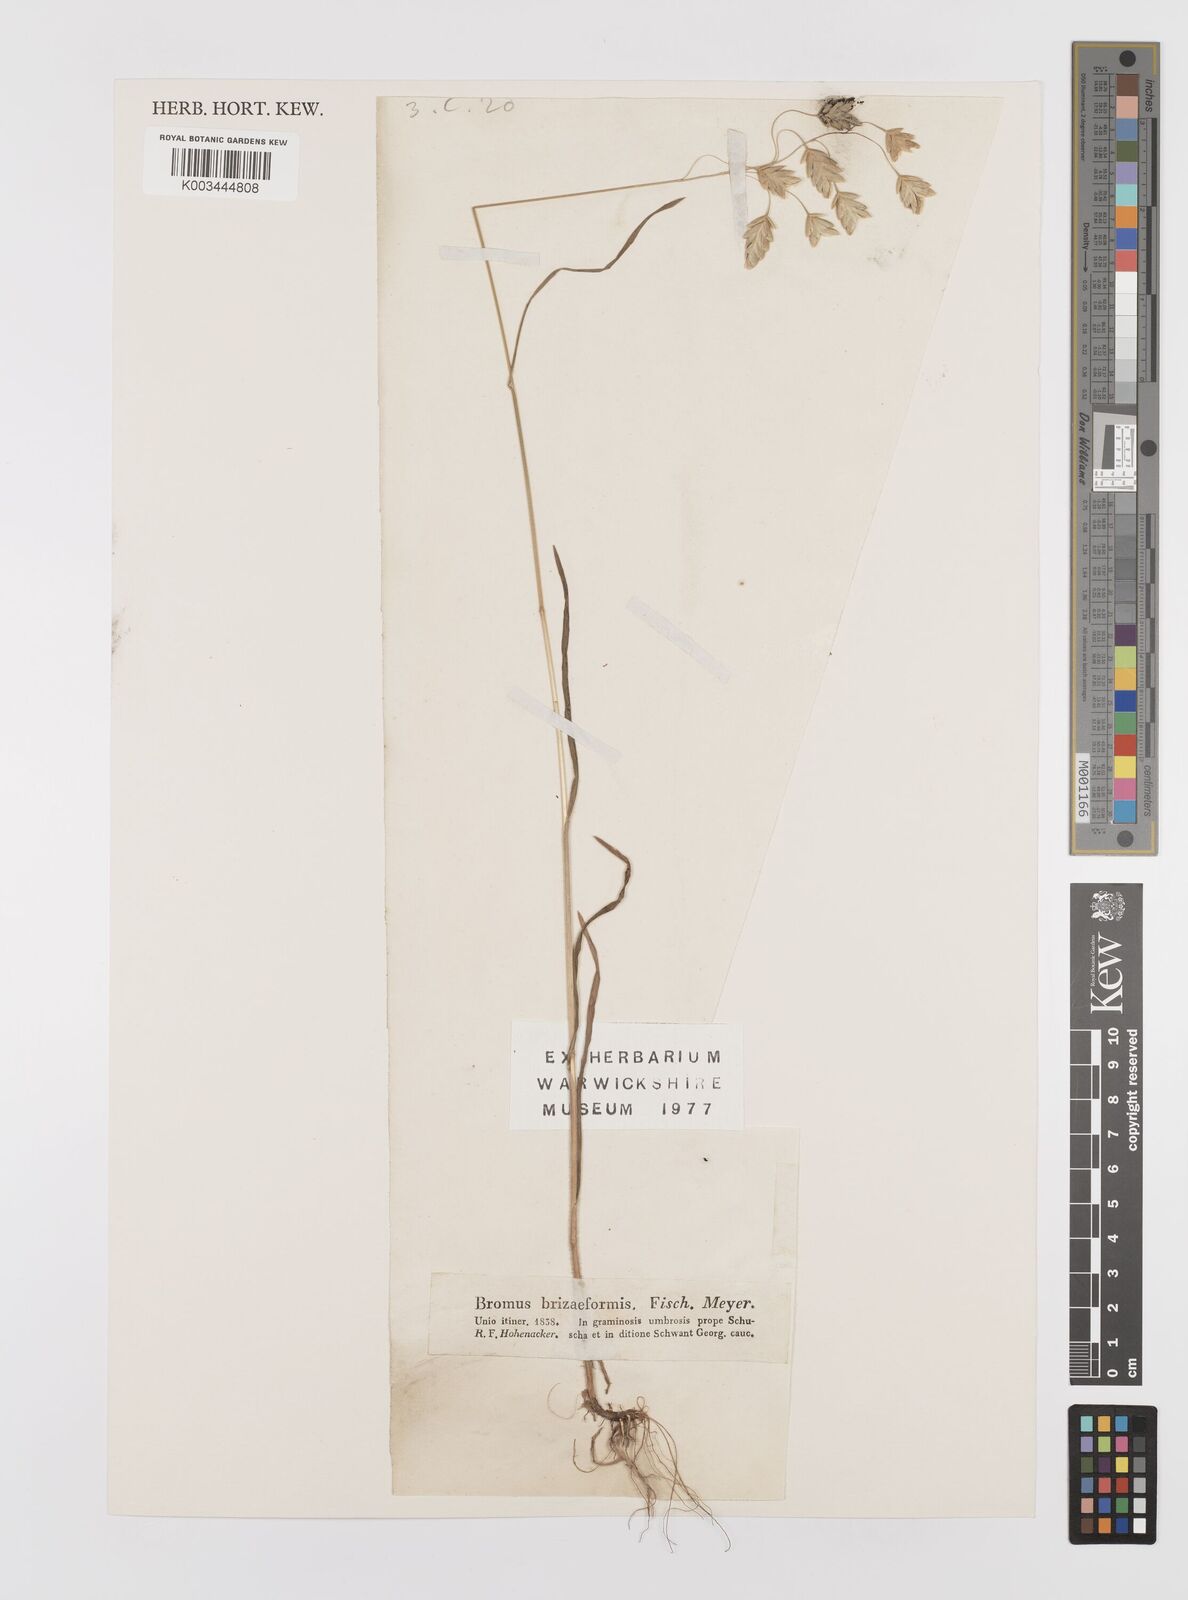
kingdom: Plantae
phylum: Tracheophyta
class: Liliopsida
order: Poales
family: Poaceae
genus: Bromus
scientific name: Bromus briziformis
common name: Rattlesnake brome
